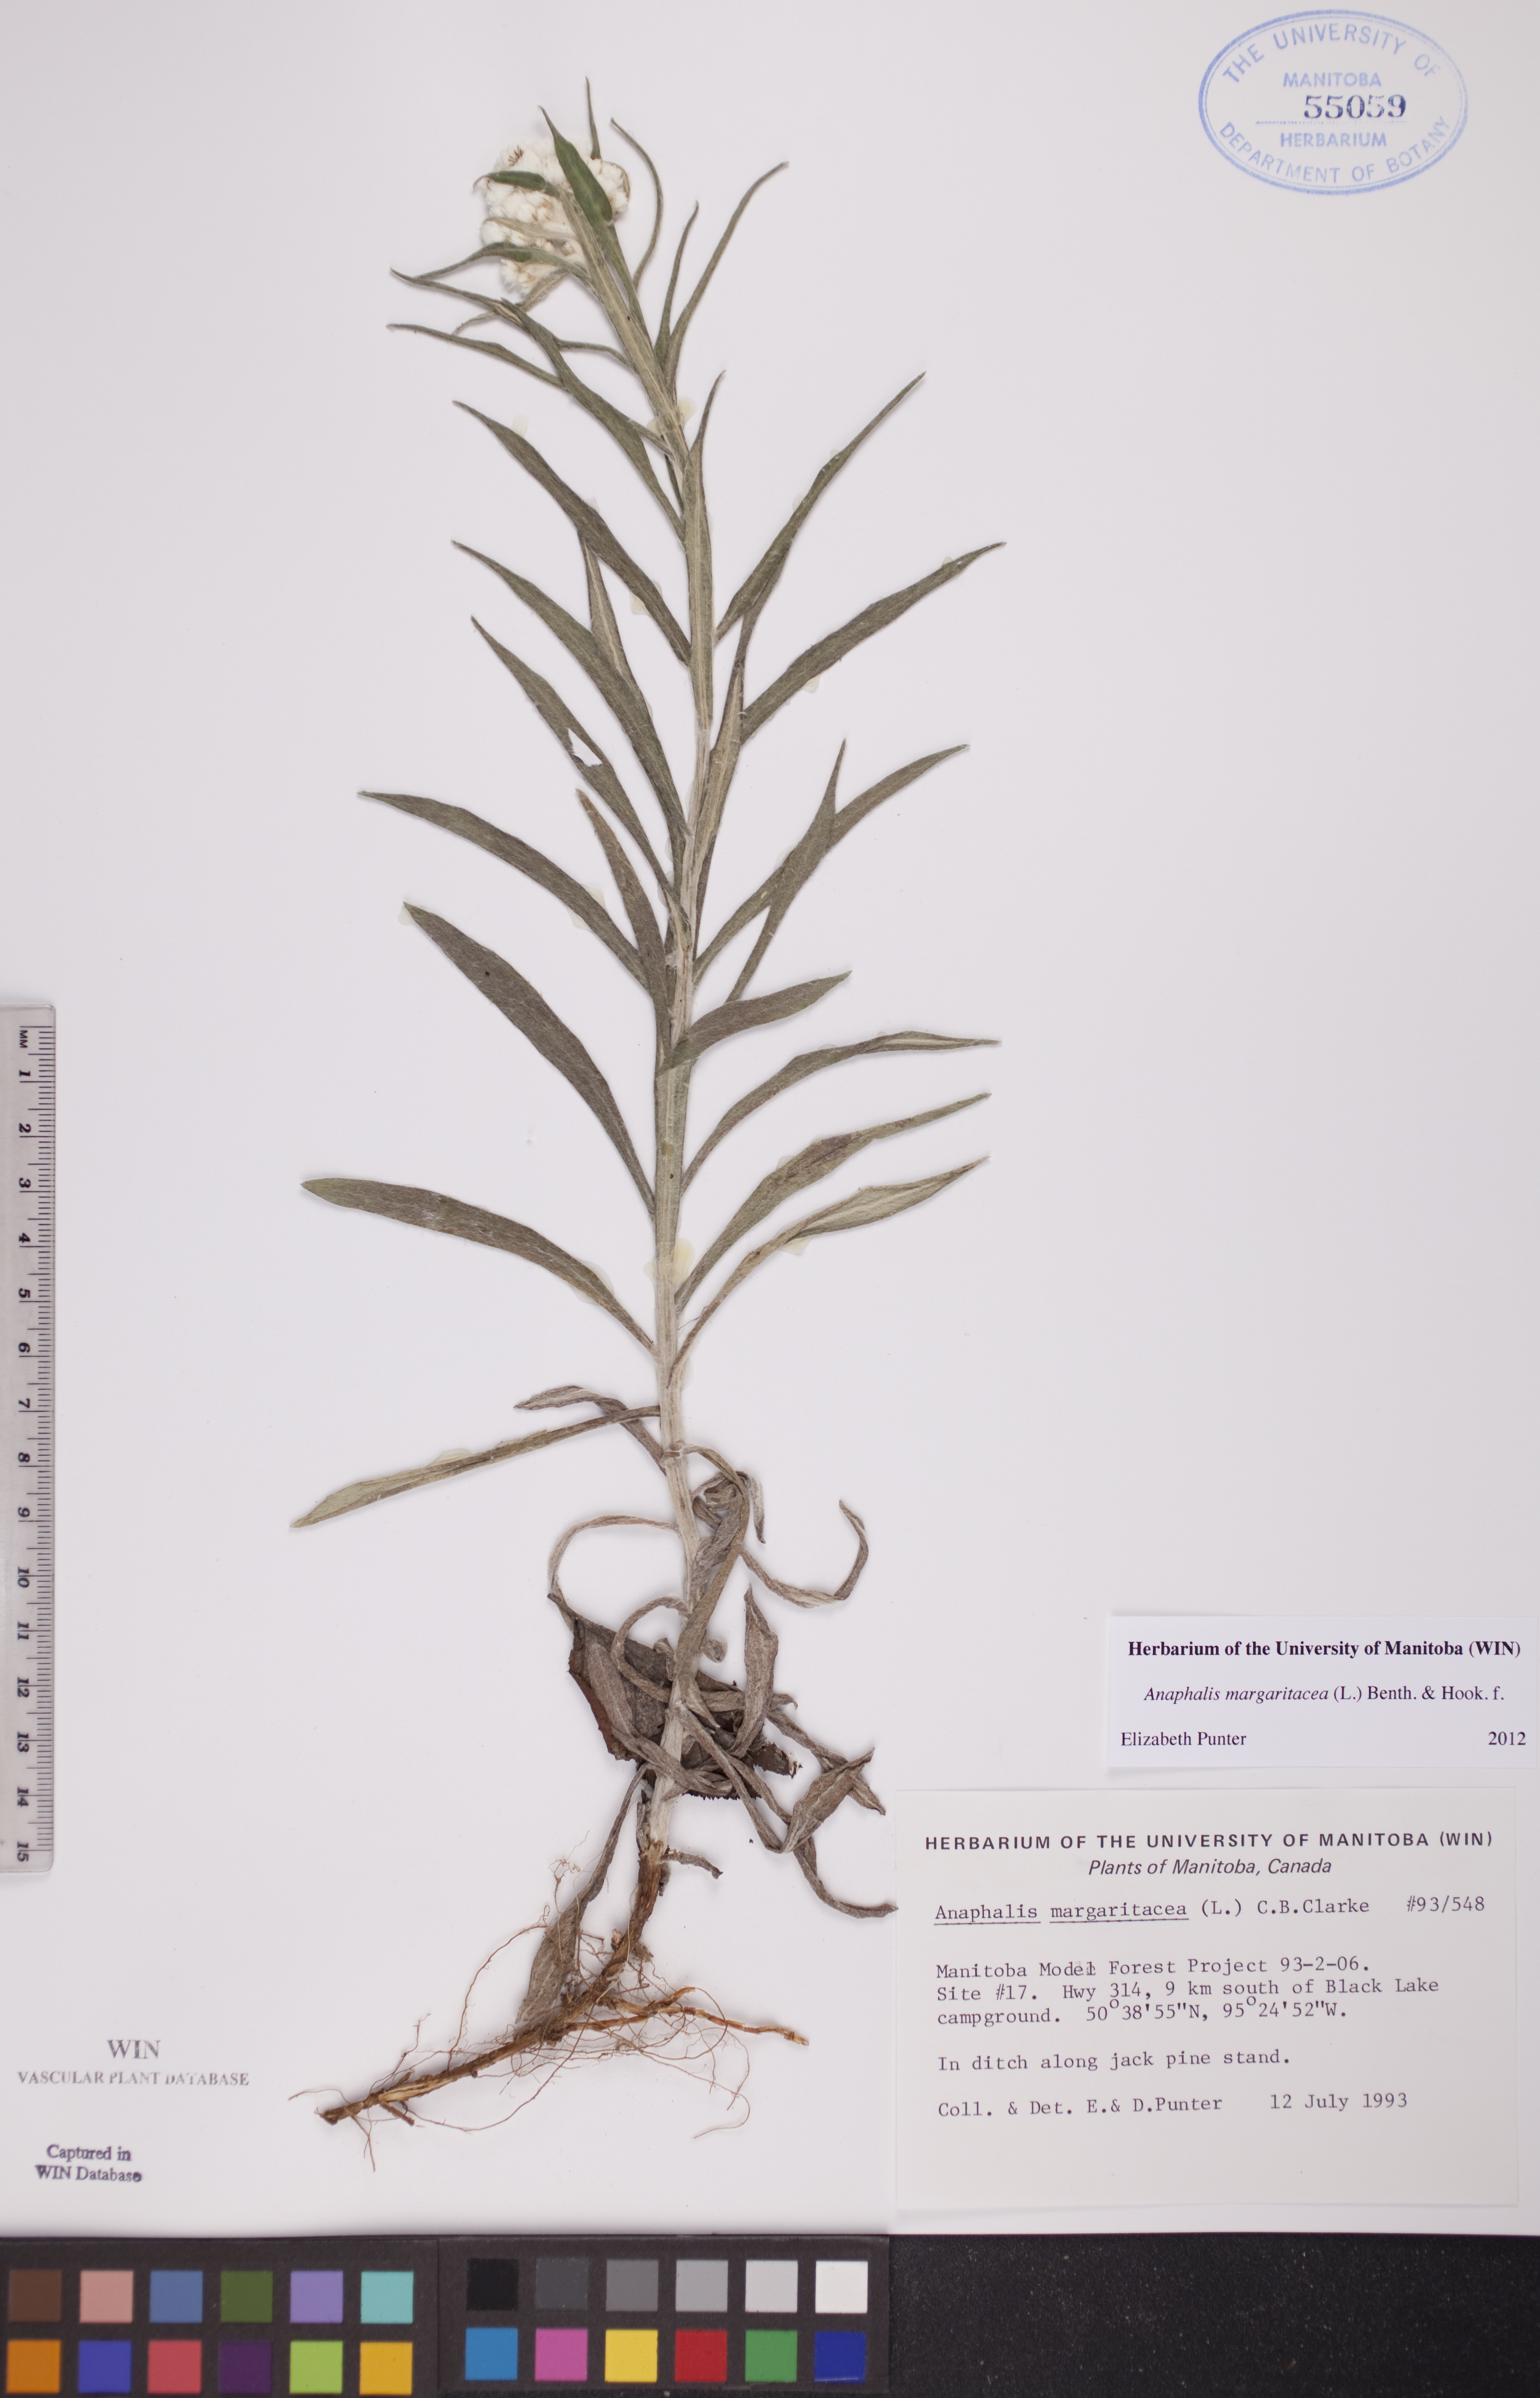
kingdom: Plantae
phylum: Tracheophyta
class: Magnoliopsida
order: Asterales
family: Asteraceae
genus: Anaphalis
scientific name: Anaphalis margaritacea
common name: Pearly everlasting
